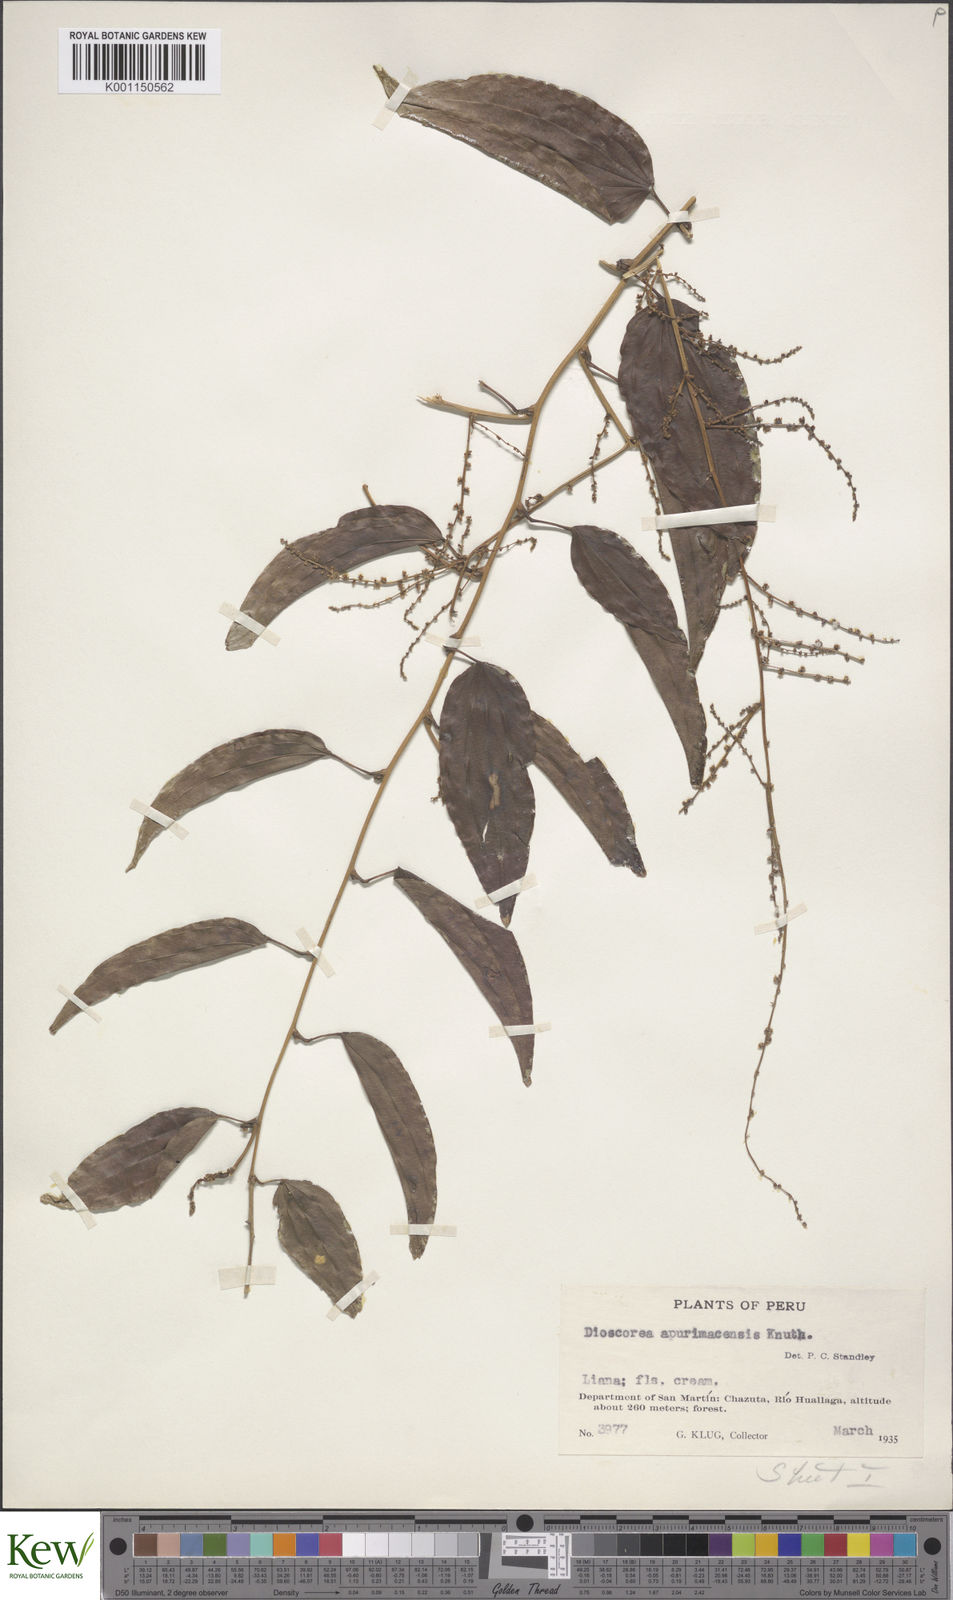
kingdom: Plantae
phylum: Tracheophyta
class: Liliopsida
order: Dioscoreales
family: Dioscoreaceae
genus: Dioscorea
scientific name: Dioscorea acanthogene
